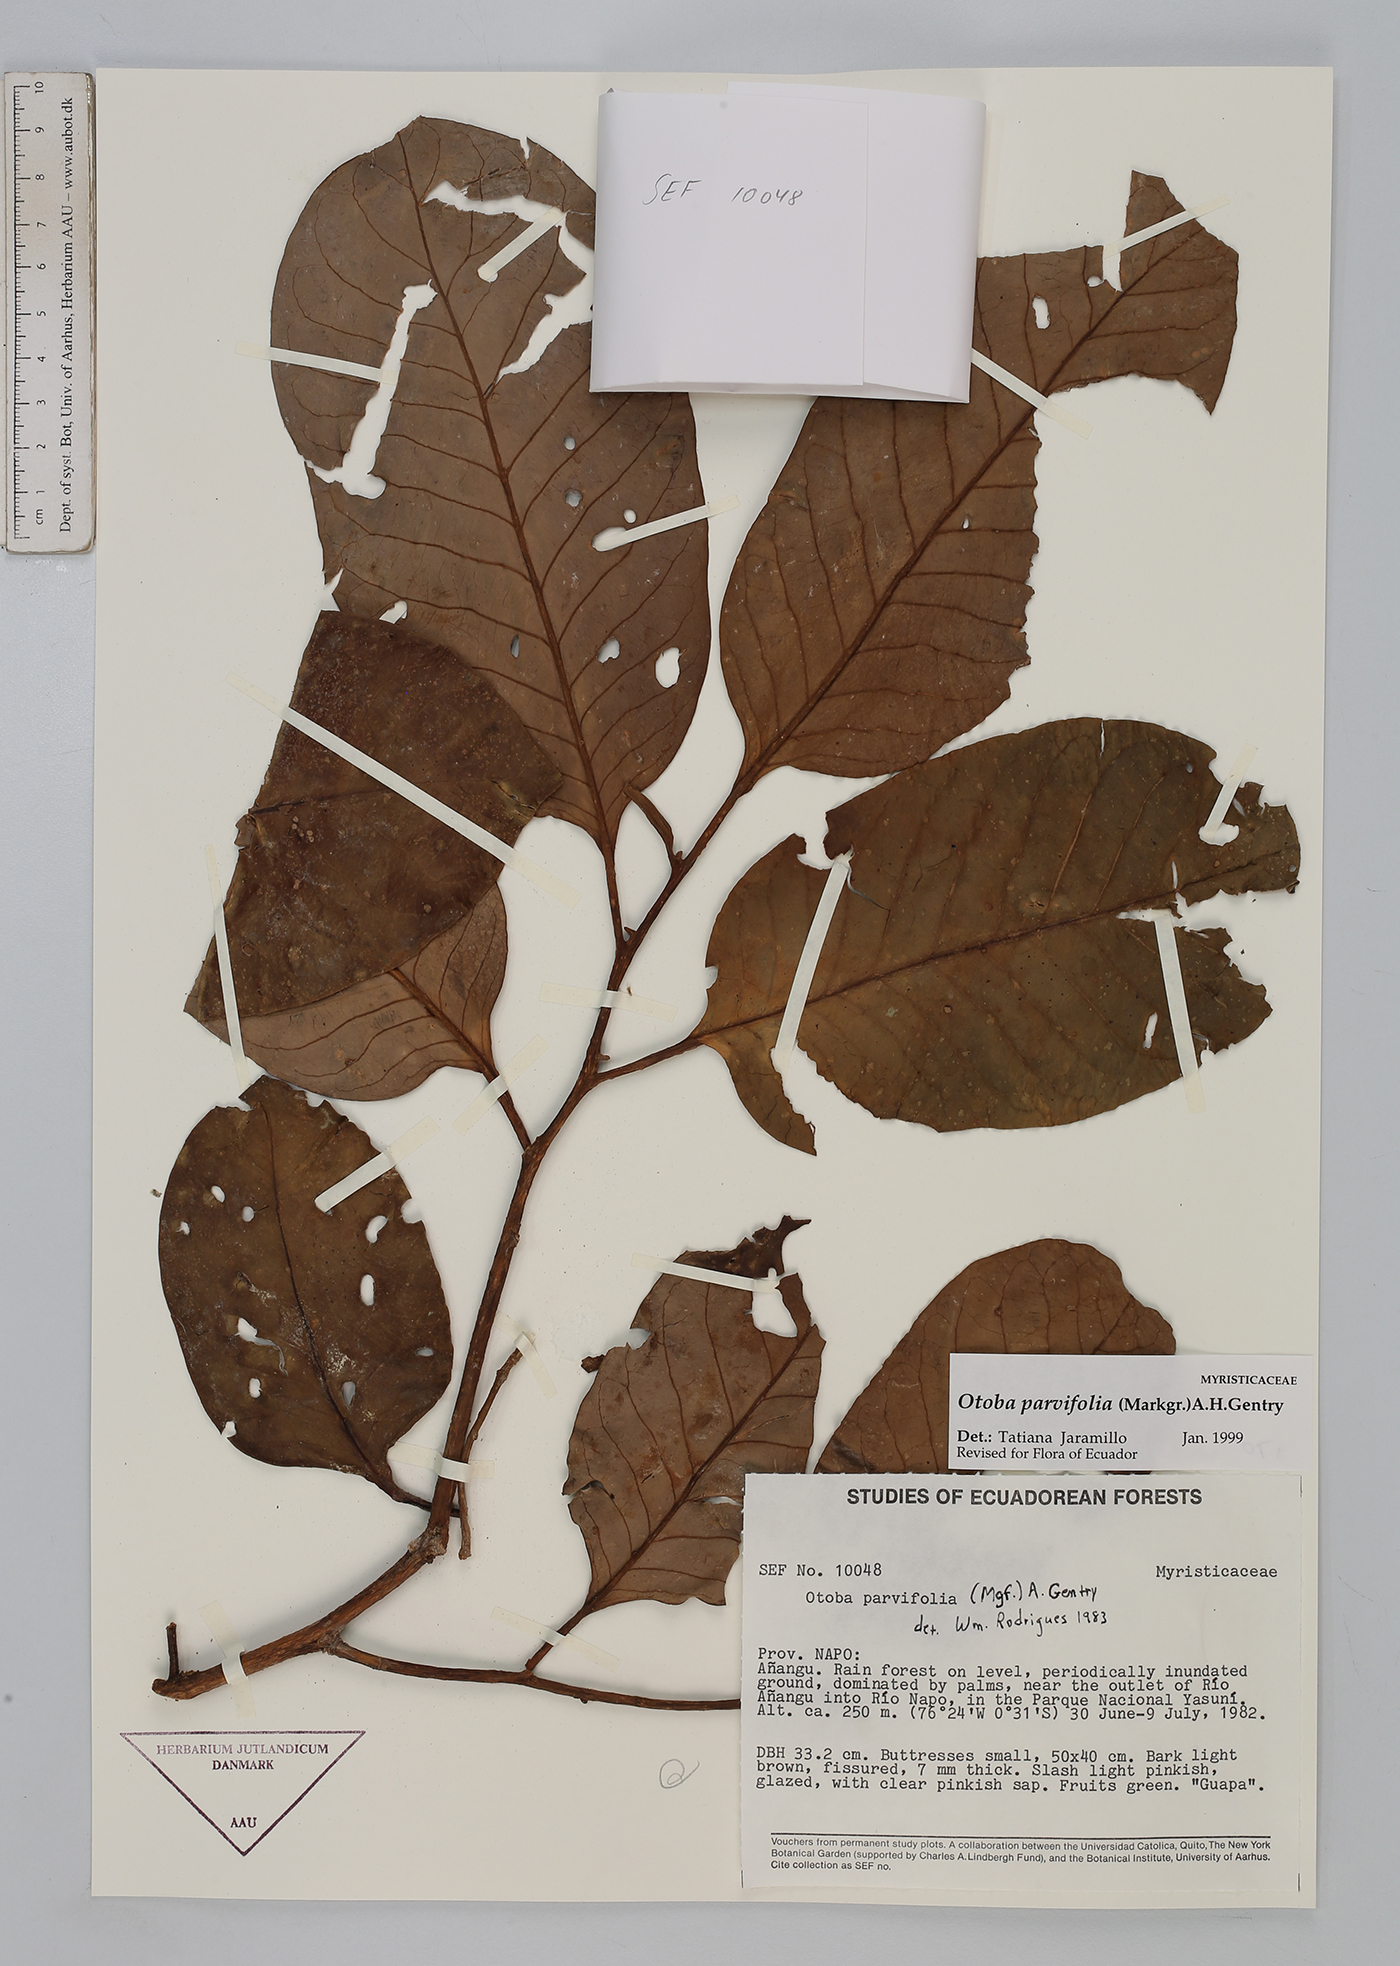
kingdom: Plantae
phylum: Tracheophyta
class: Magnoliopsida
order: Magnoliales
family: Myristicaceae
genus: Otoba
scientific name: Otoba parvifolia
